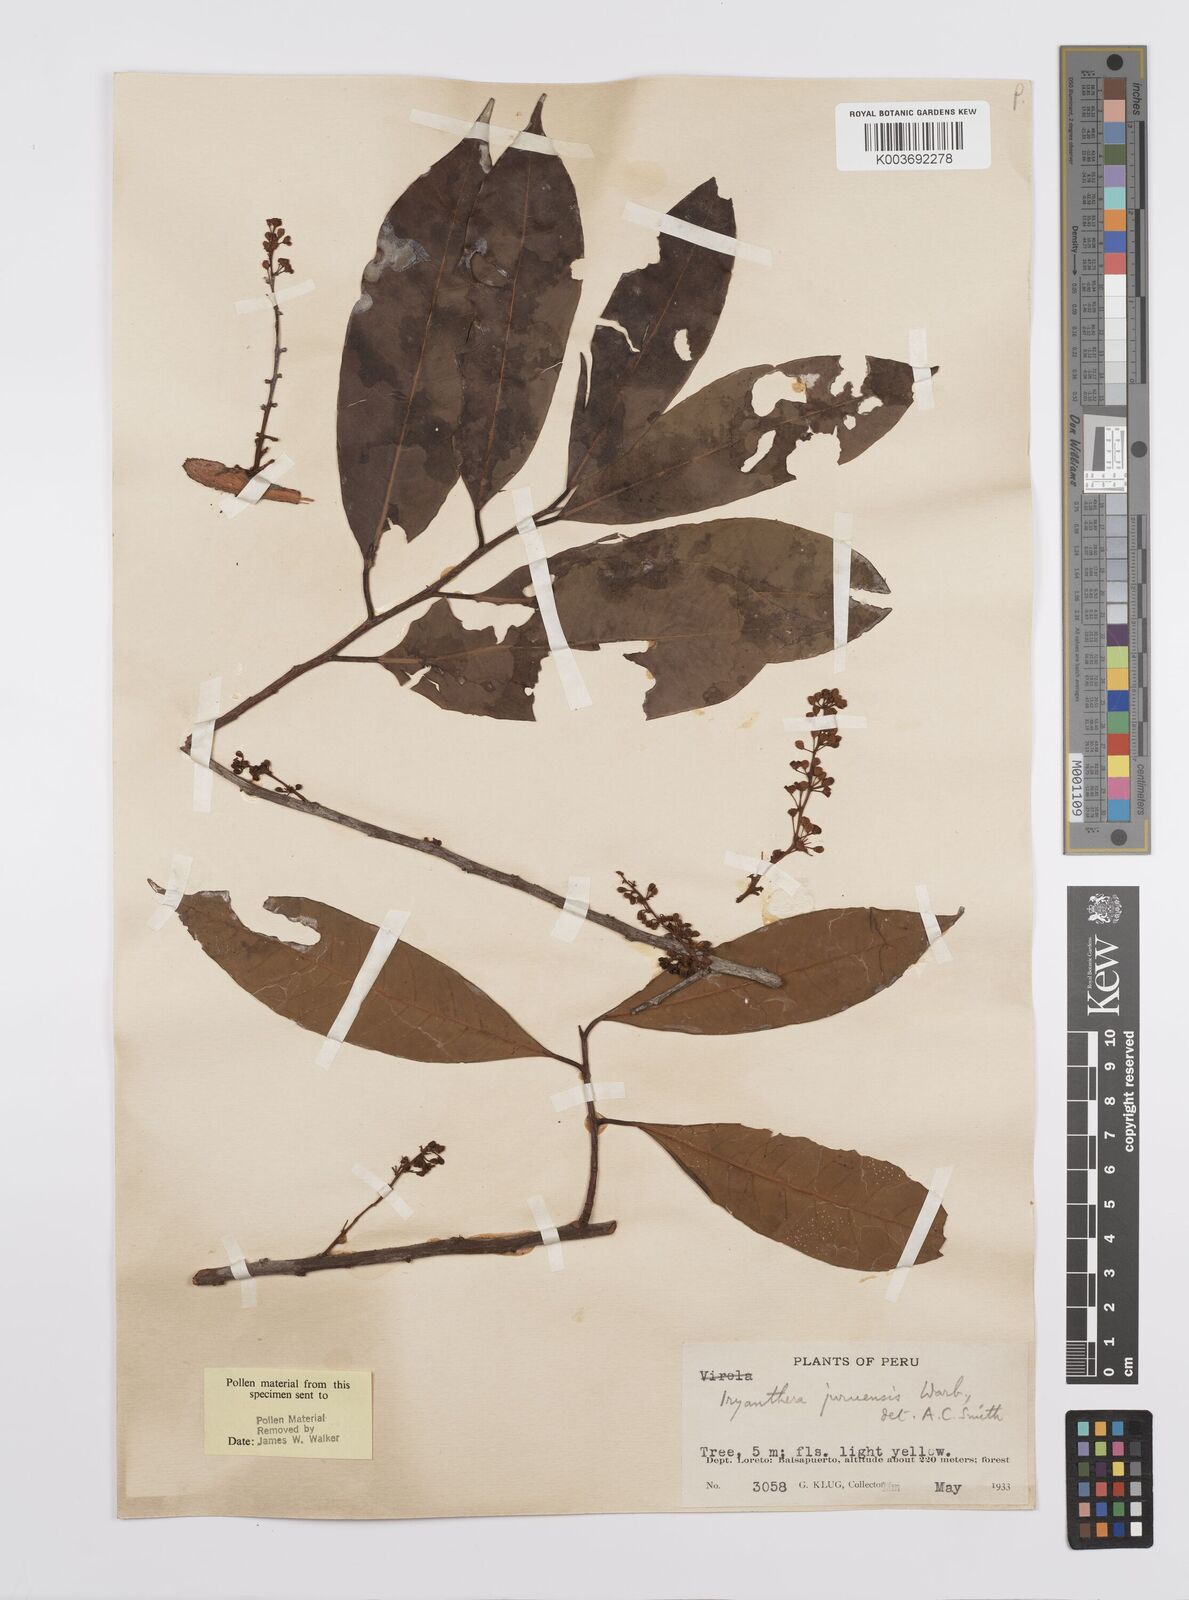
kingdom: Plantae
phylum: Tracheophyta
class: Magnoliopsida
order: Magnoliales
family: Myristicaceae
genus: Iryanthera
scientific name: Iryanthera juruensis
